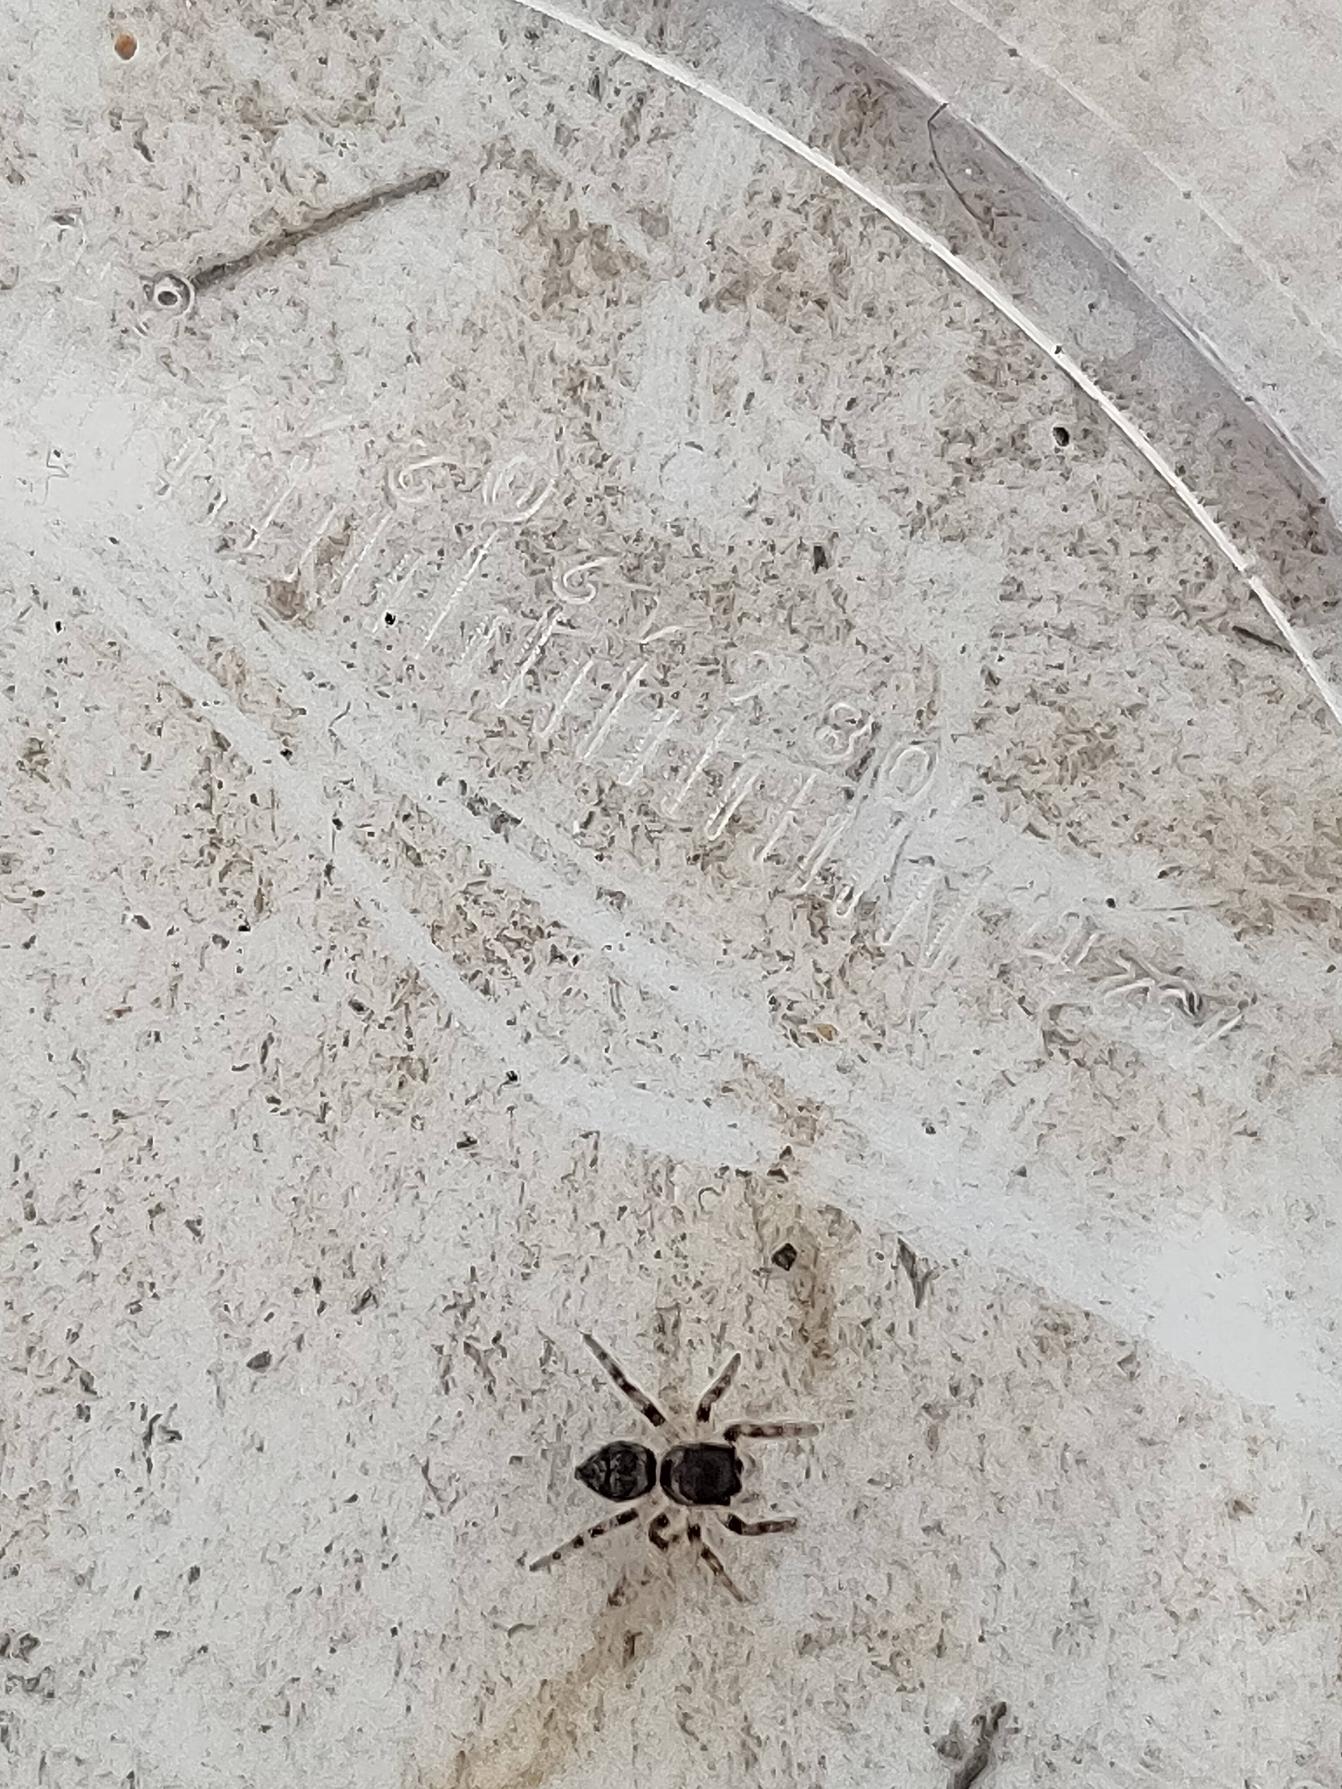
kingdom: Animalia
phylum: Arthropoda
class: Arachnida
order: Araneae
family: Salticidae
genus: Evarcha
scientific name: Evarcha falcata
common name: Broget springedderkop
